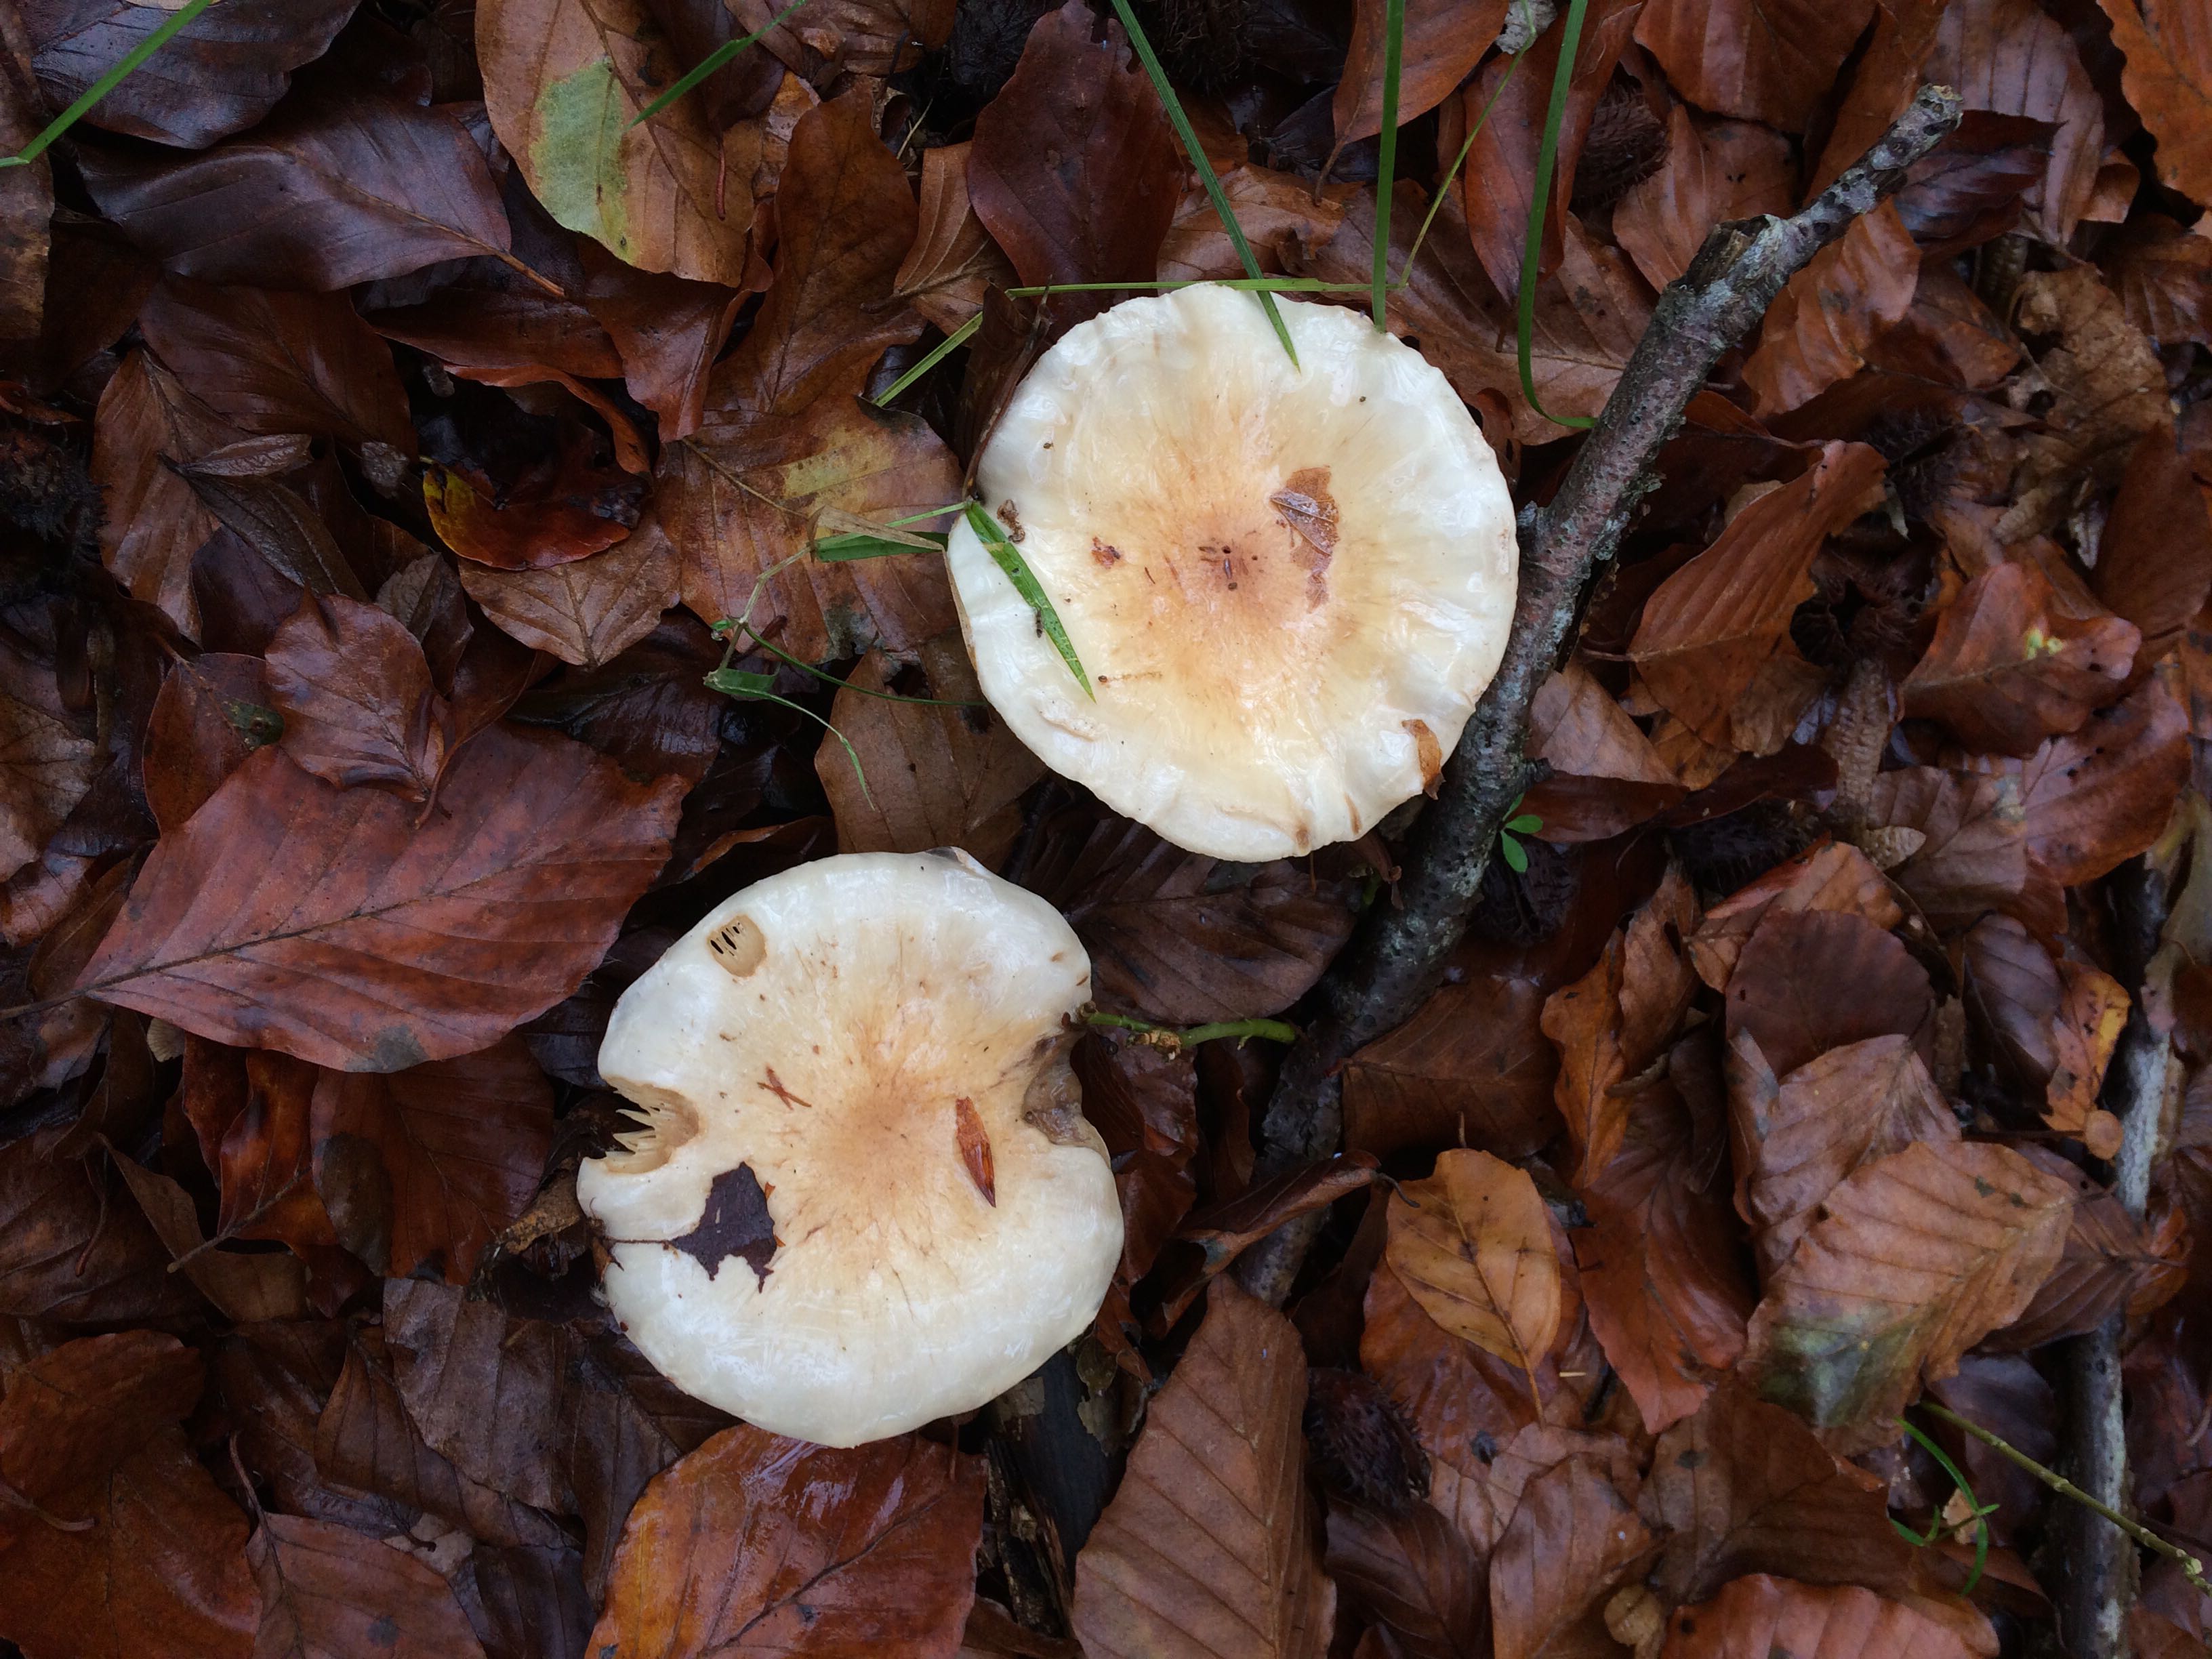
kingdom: Fungi
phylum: Basidiomycota
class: Agaricomycetes
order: Agaricales
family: Strophariaceae
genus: Pholiota
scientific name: Pholiota lenta
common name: løv-skælhat
